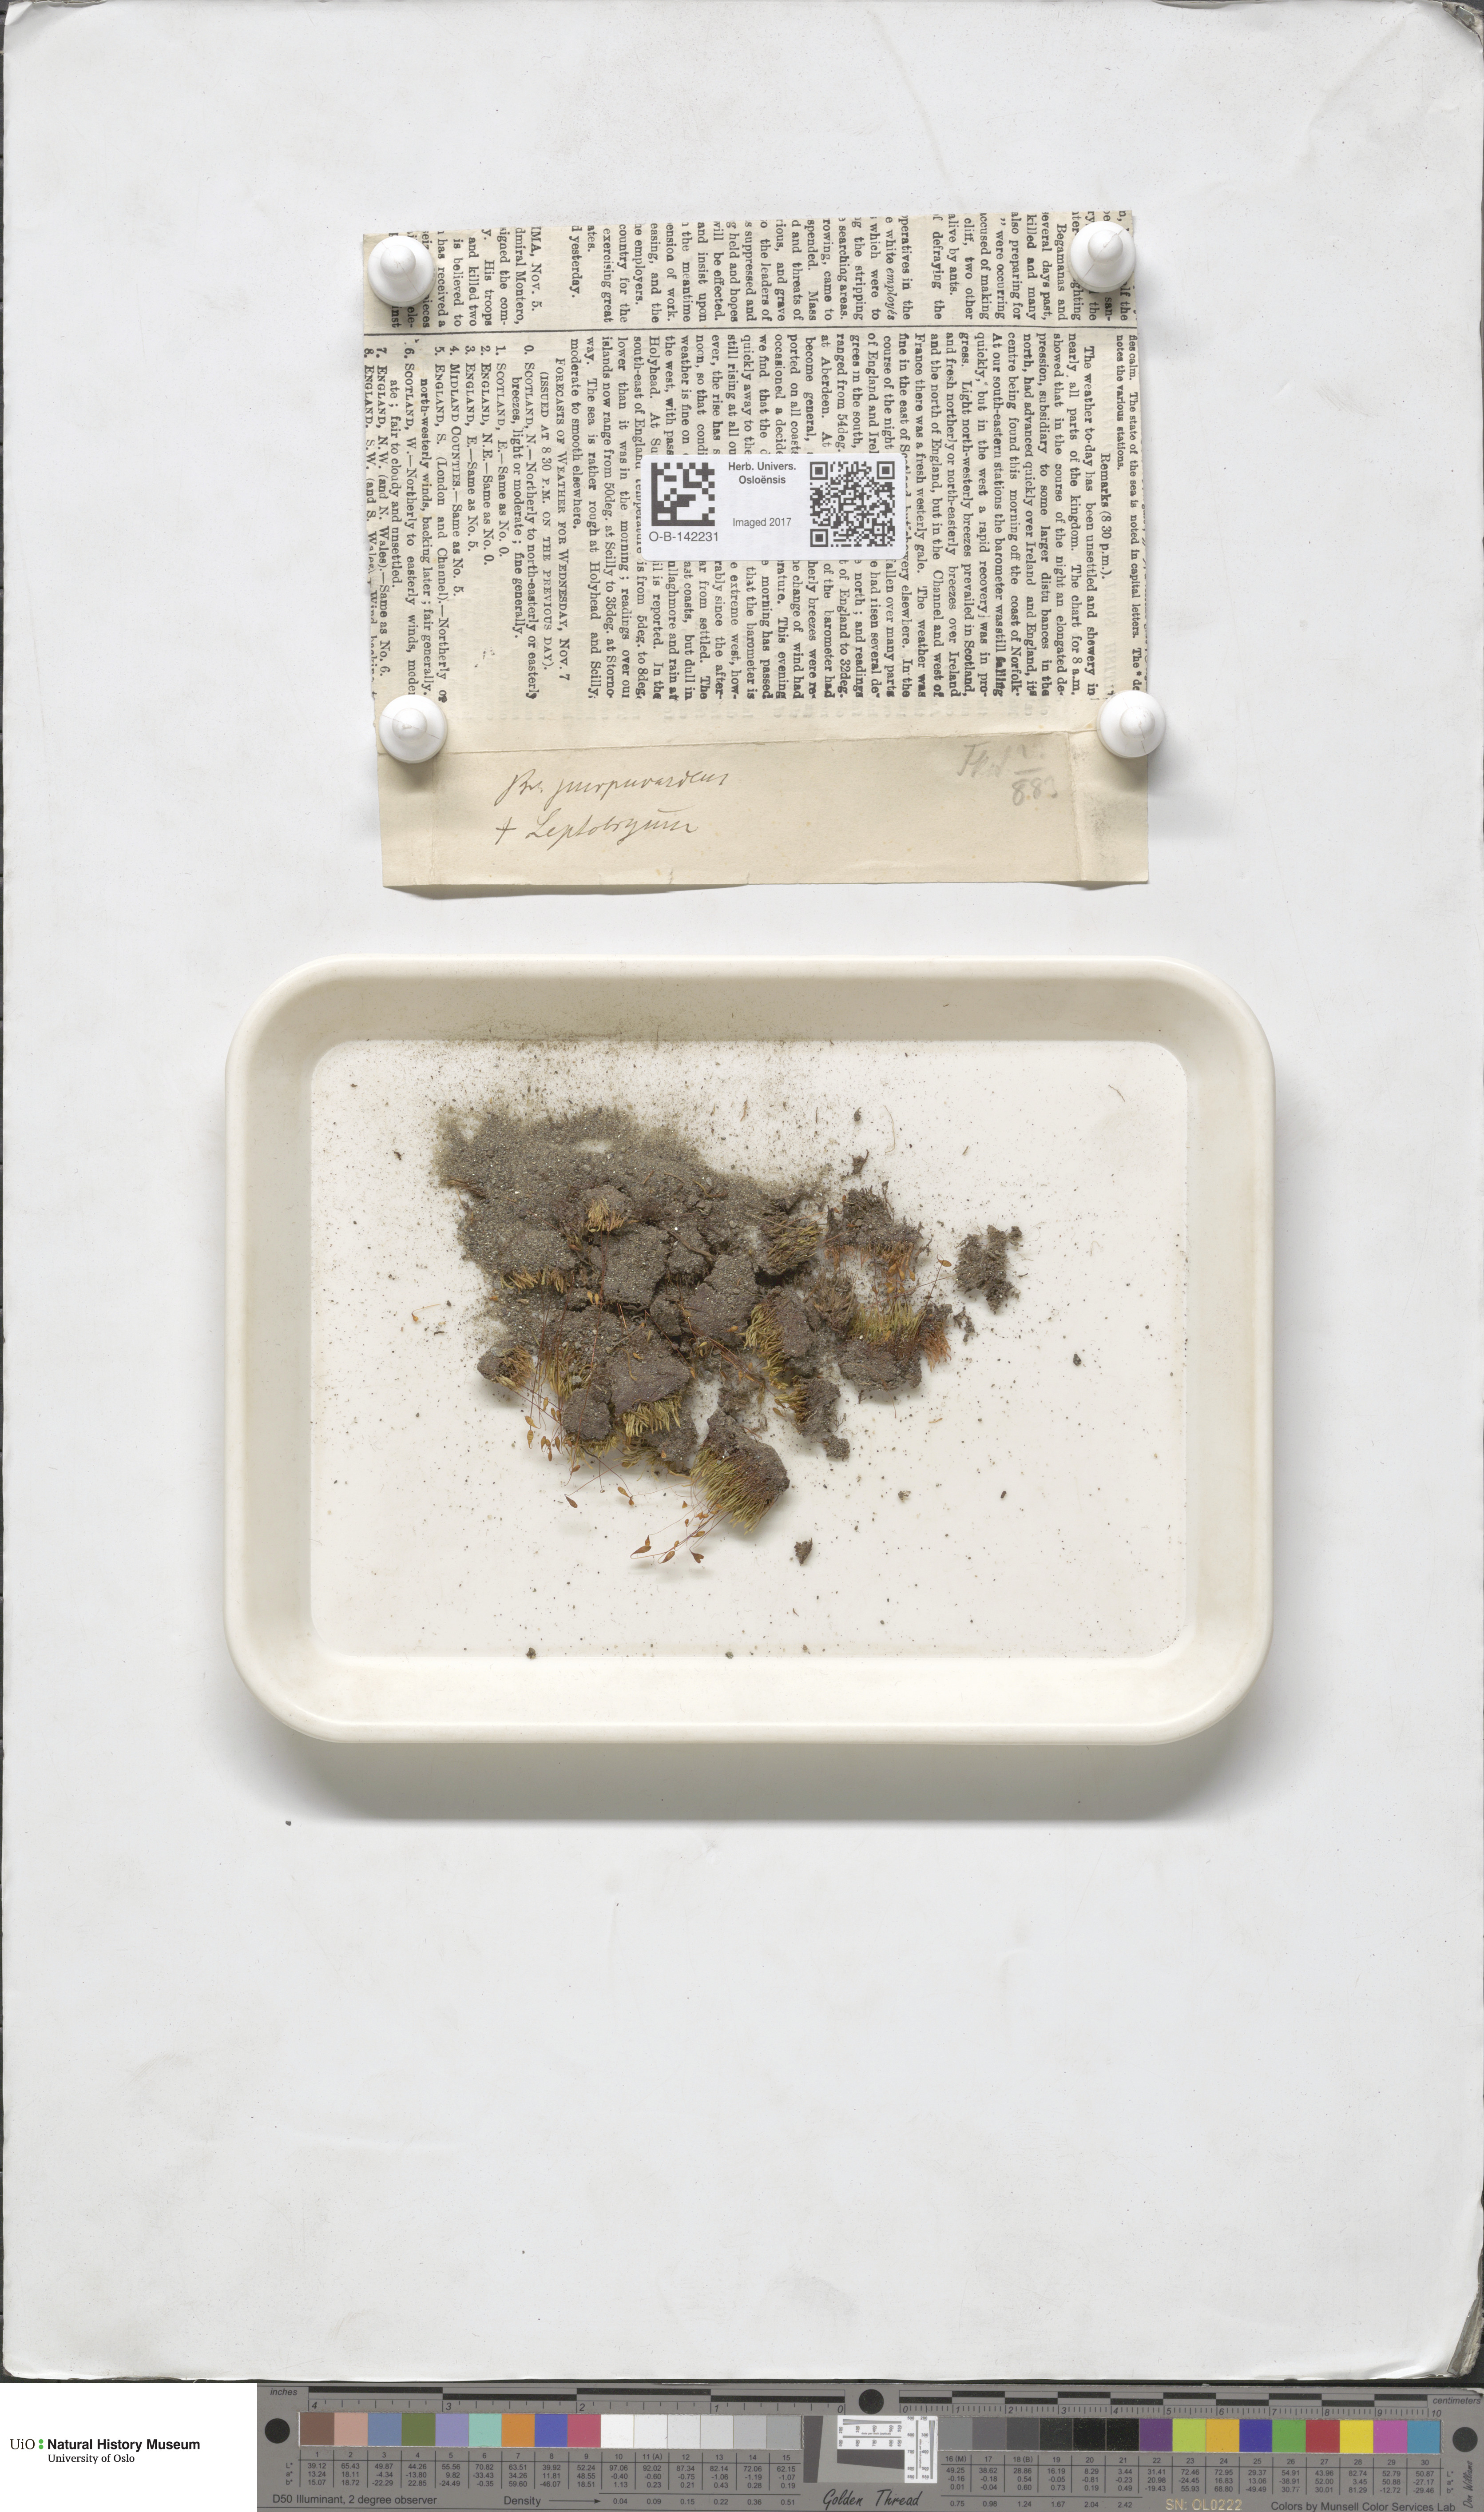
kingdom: Plantae
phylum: Bryophyta
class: Bryopsida
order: Bryales
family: Bryaceae
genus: Ptychostomum
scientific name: Ptychostomum arcticum
